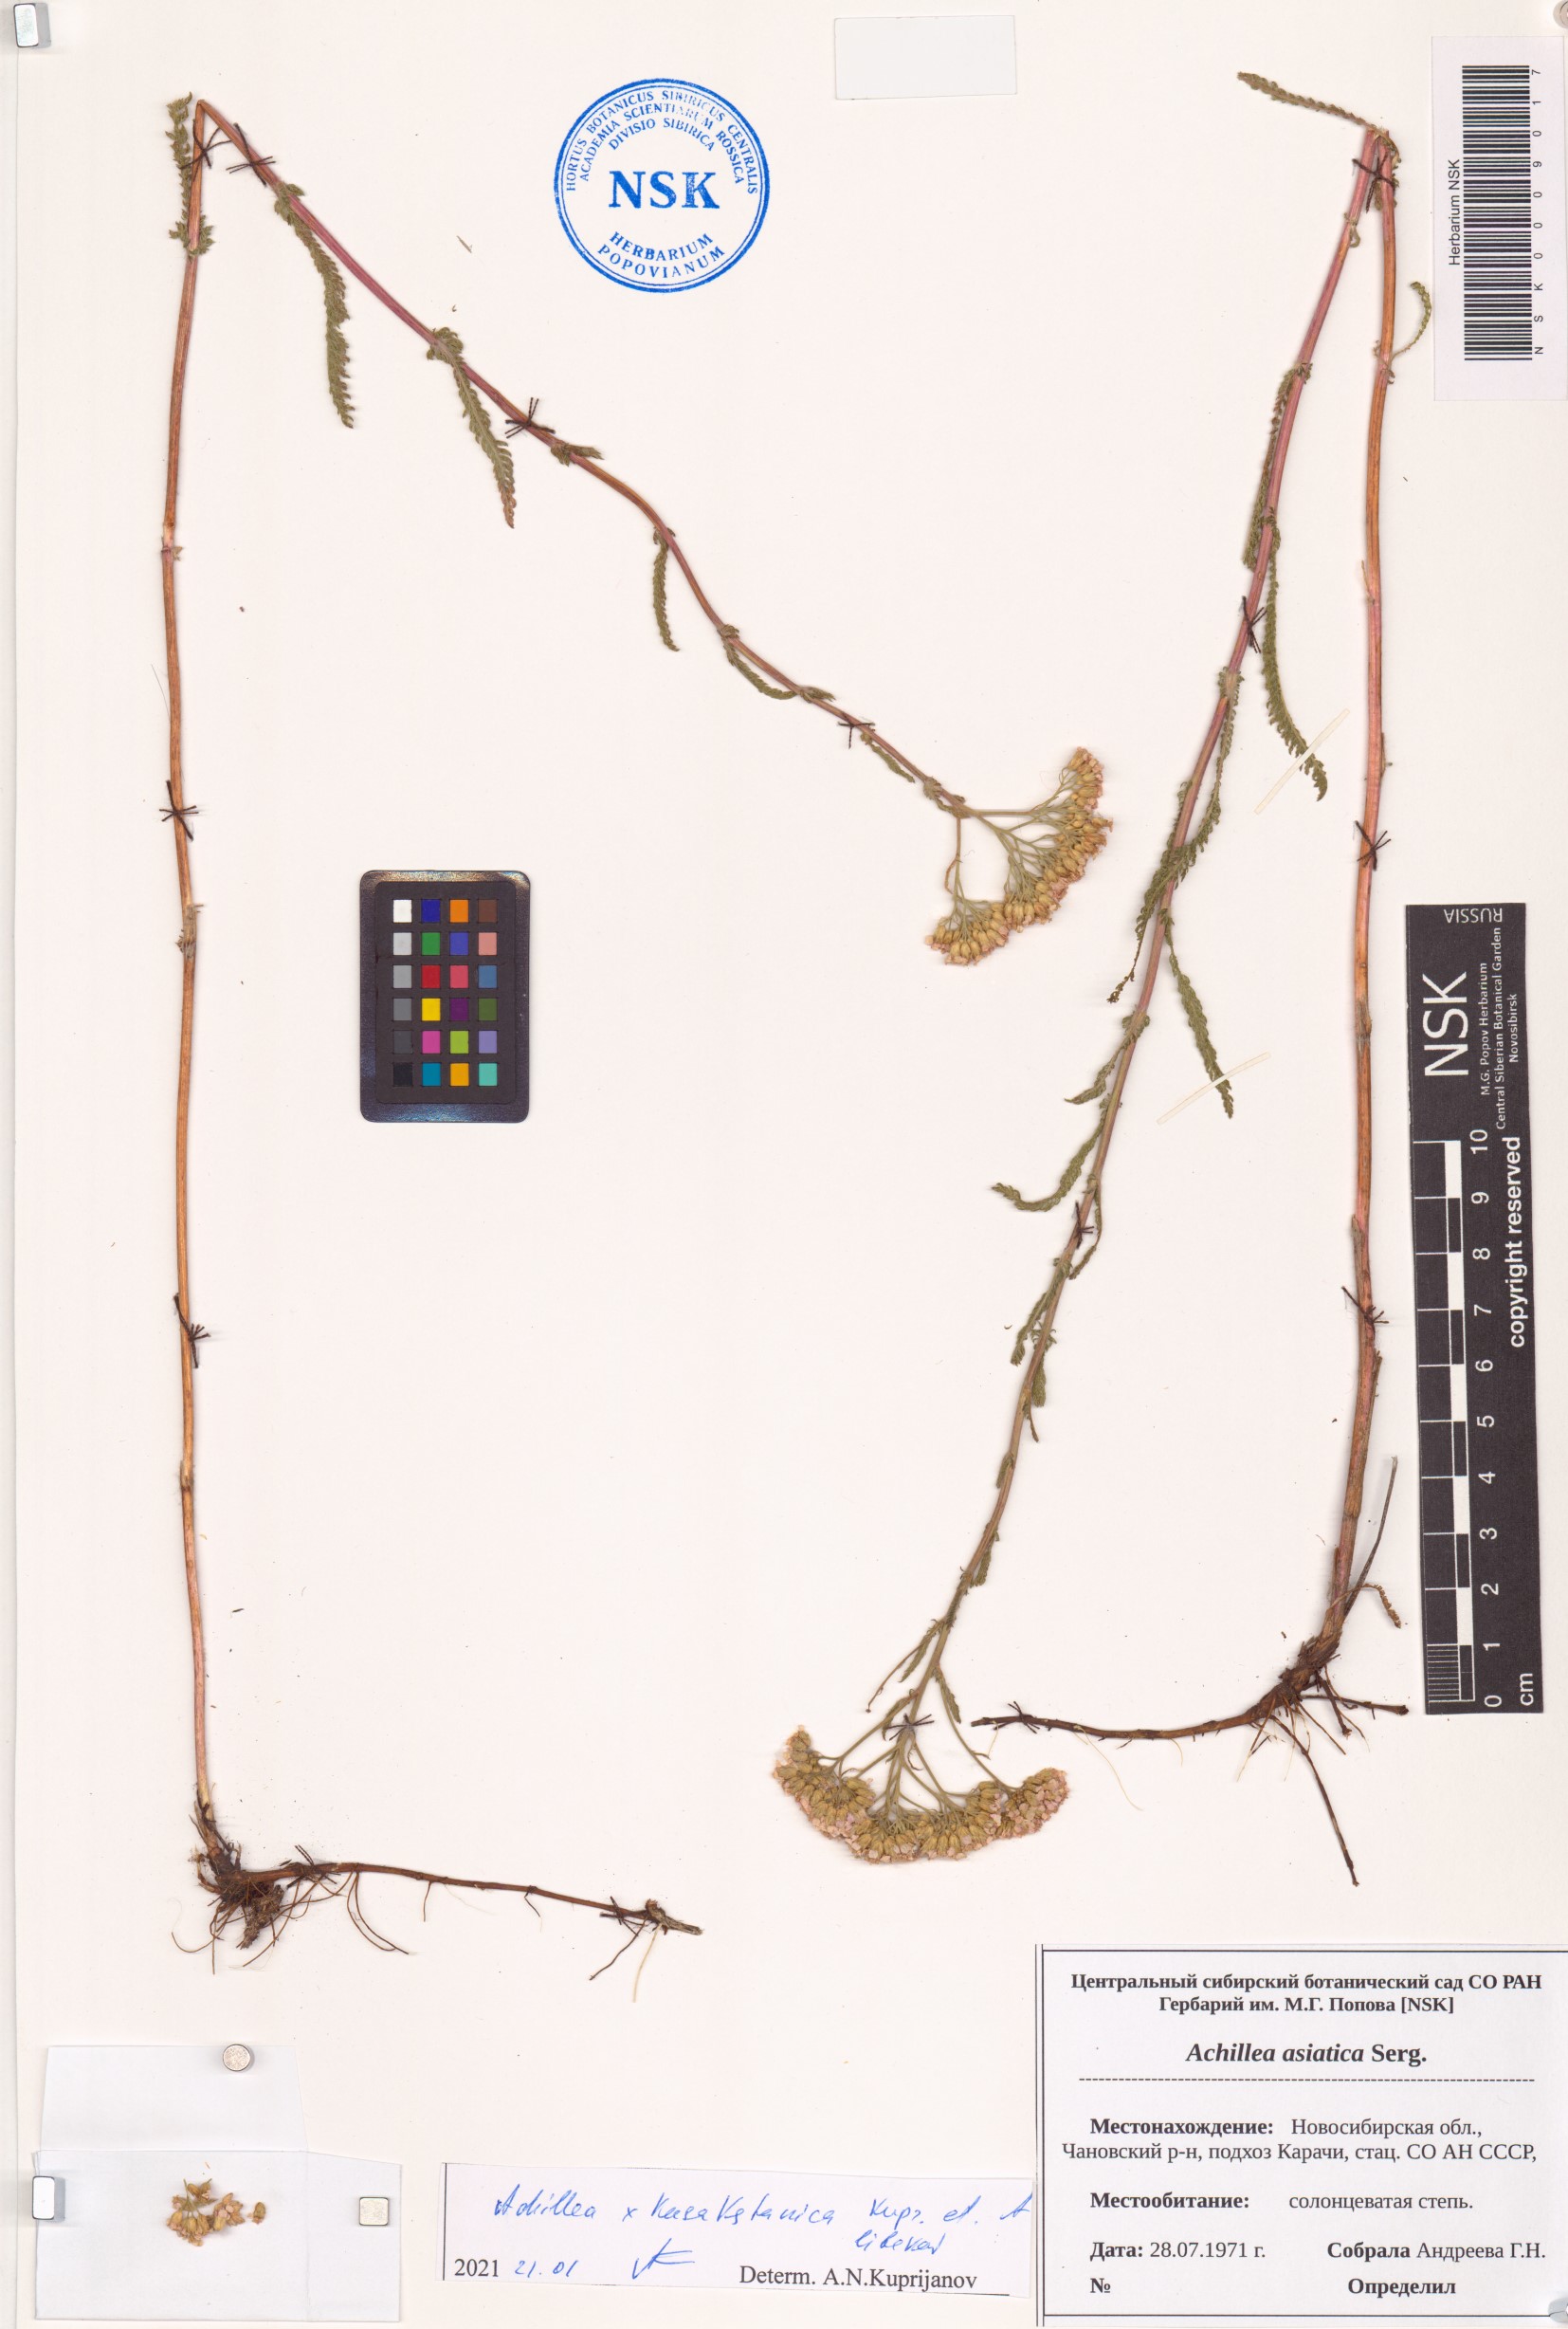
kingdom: Plantae
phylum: Tracheophyta
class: Magnoliopsida
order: Asterales
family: Asteraceae
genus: Achillea
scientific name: Achillea
